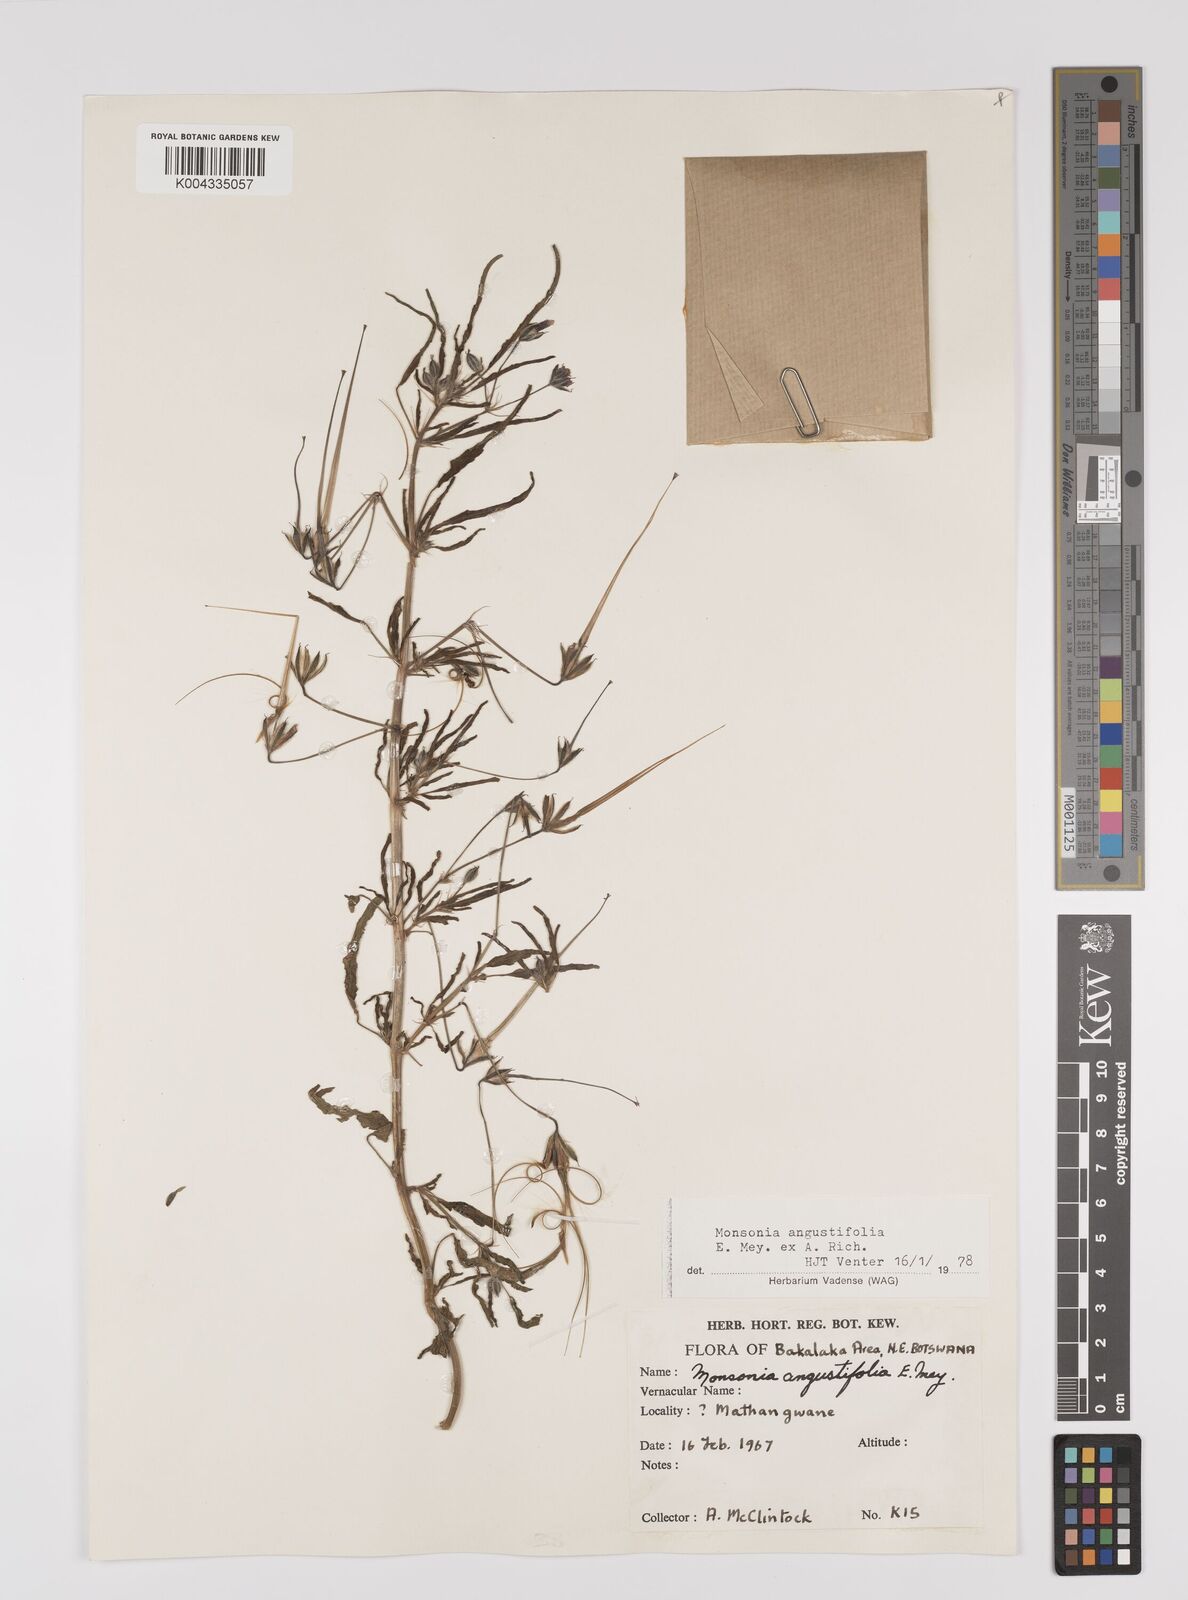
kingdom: Plantae
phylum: Tracheophyta
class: Magnoliopsida
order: Geraniales
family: Geraniaceae
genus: Monsonia
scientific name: Monsonia angustifolia
